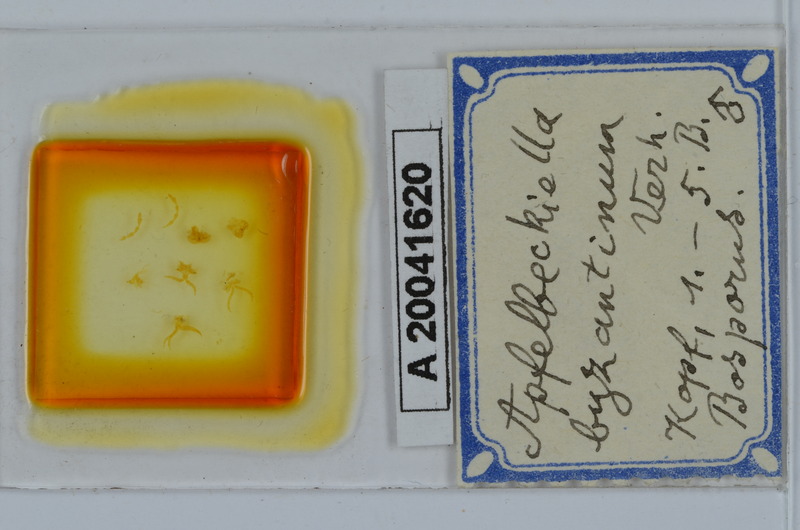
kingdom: Animalia
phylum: Arthropoda
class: Diplopoda
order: Julida
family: Julidae
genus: Apfelbeckiella
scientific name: Apfelbeckiella byzantina
